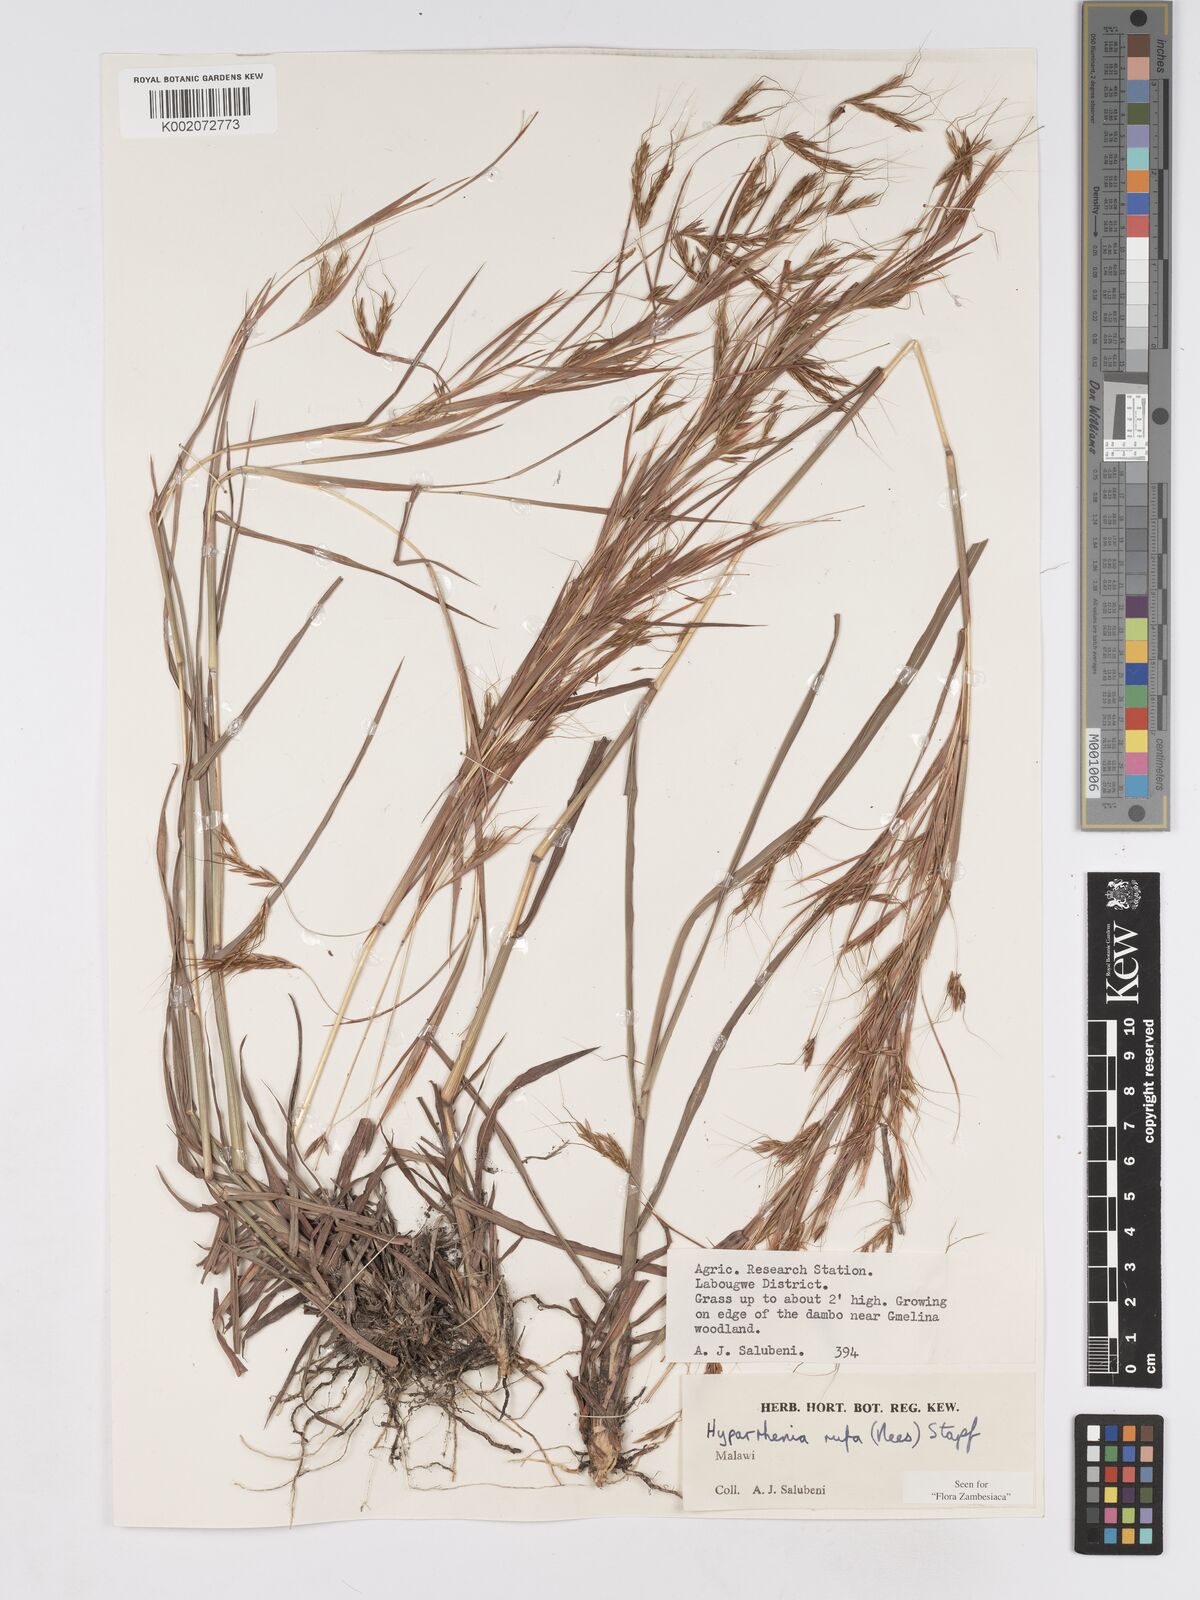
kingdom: Plantae
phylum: Tracheophyta
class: Liliopsida
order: Poales
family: Poaceae
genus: Hyparrhenia
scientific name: Hyparrhenia rufa
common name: Jaraguagrass
